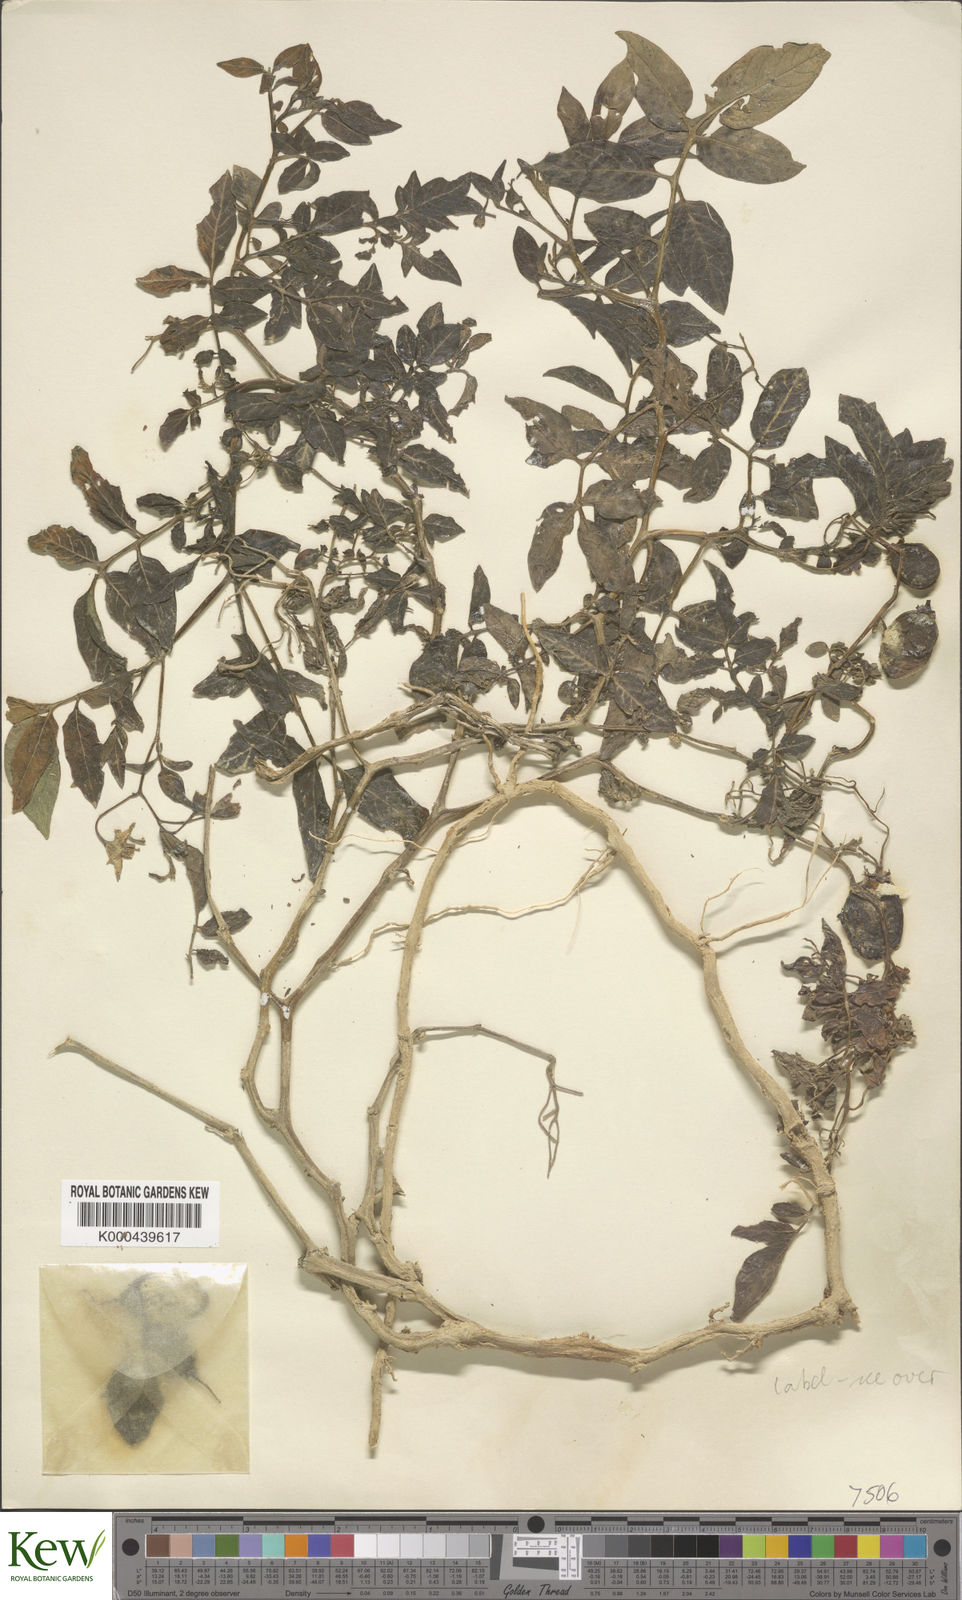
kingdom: Plantae
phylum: Tracheophyta
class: Magnoliopsida
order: Solanales
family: Solanaceae
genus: Solanum
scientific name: Solanum colombianum
